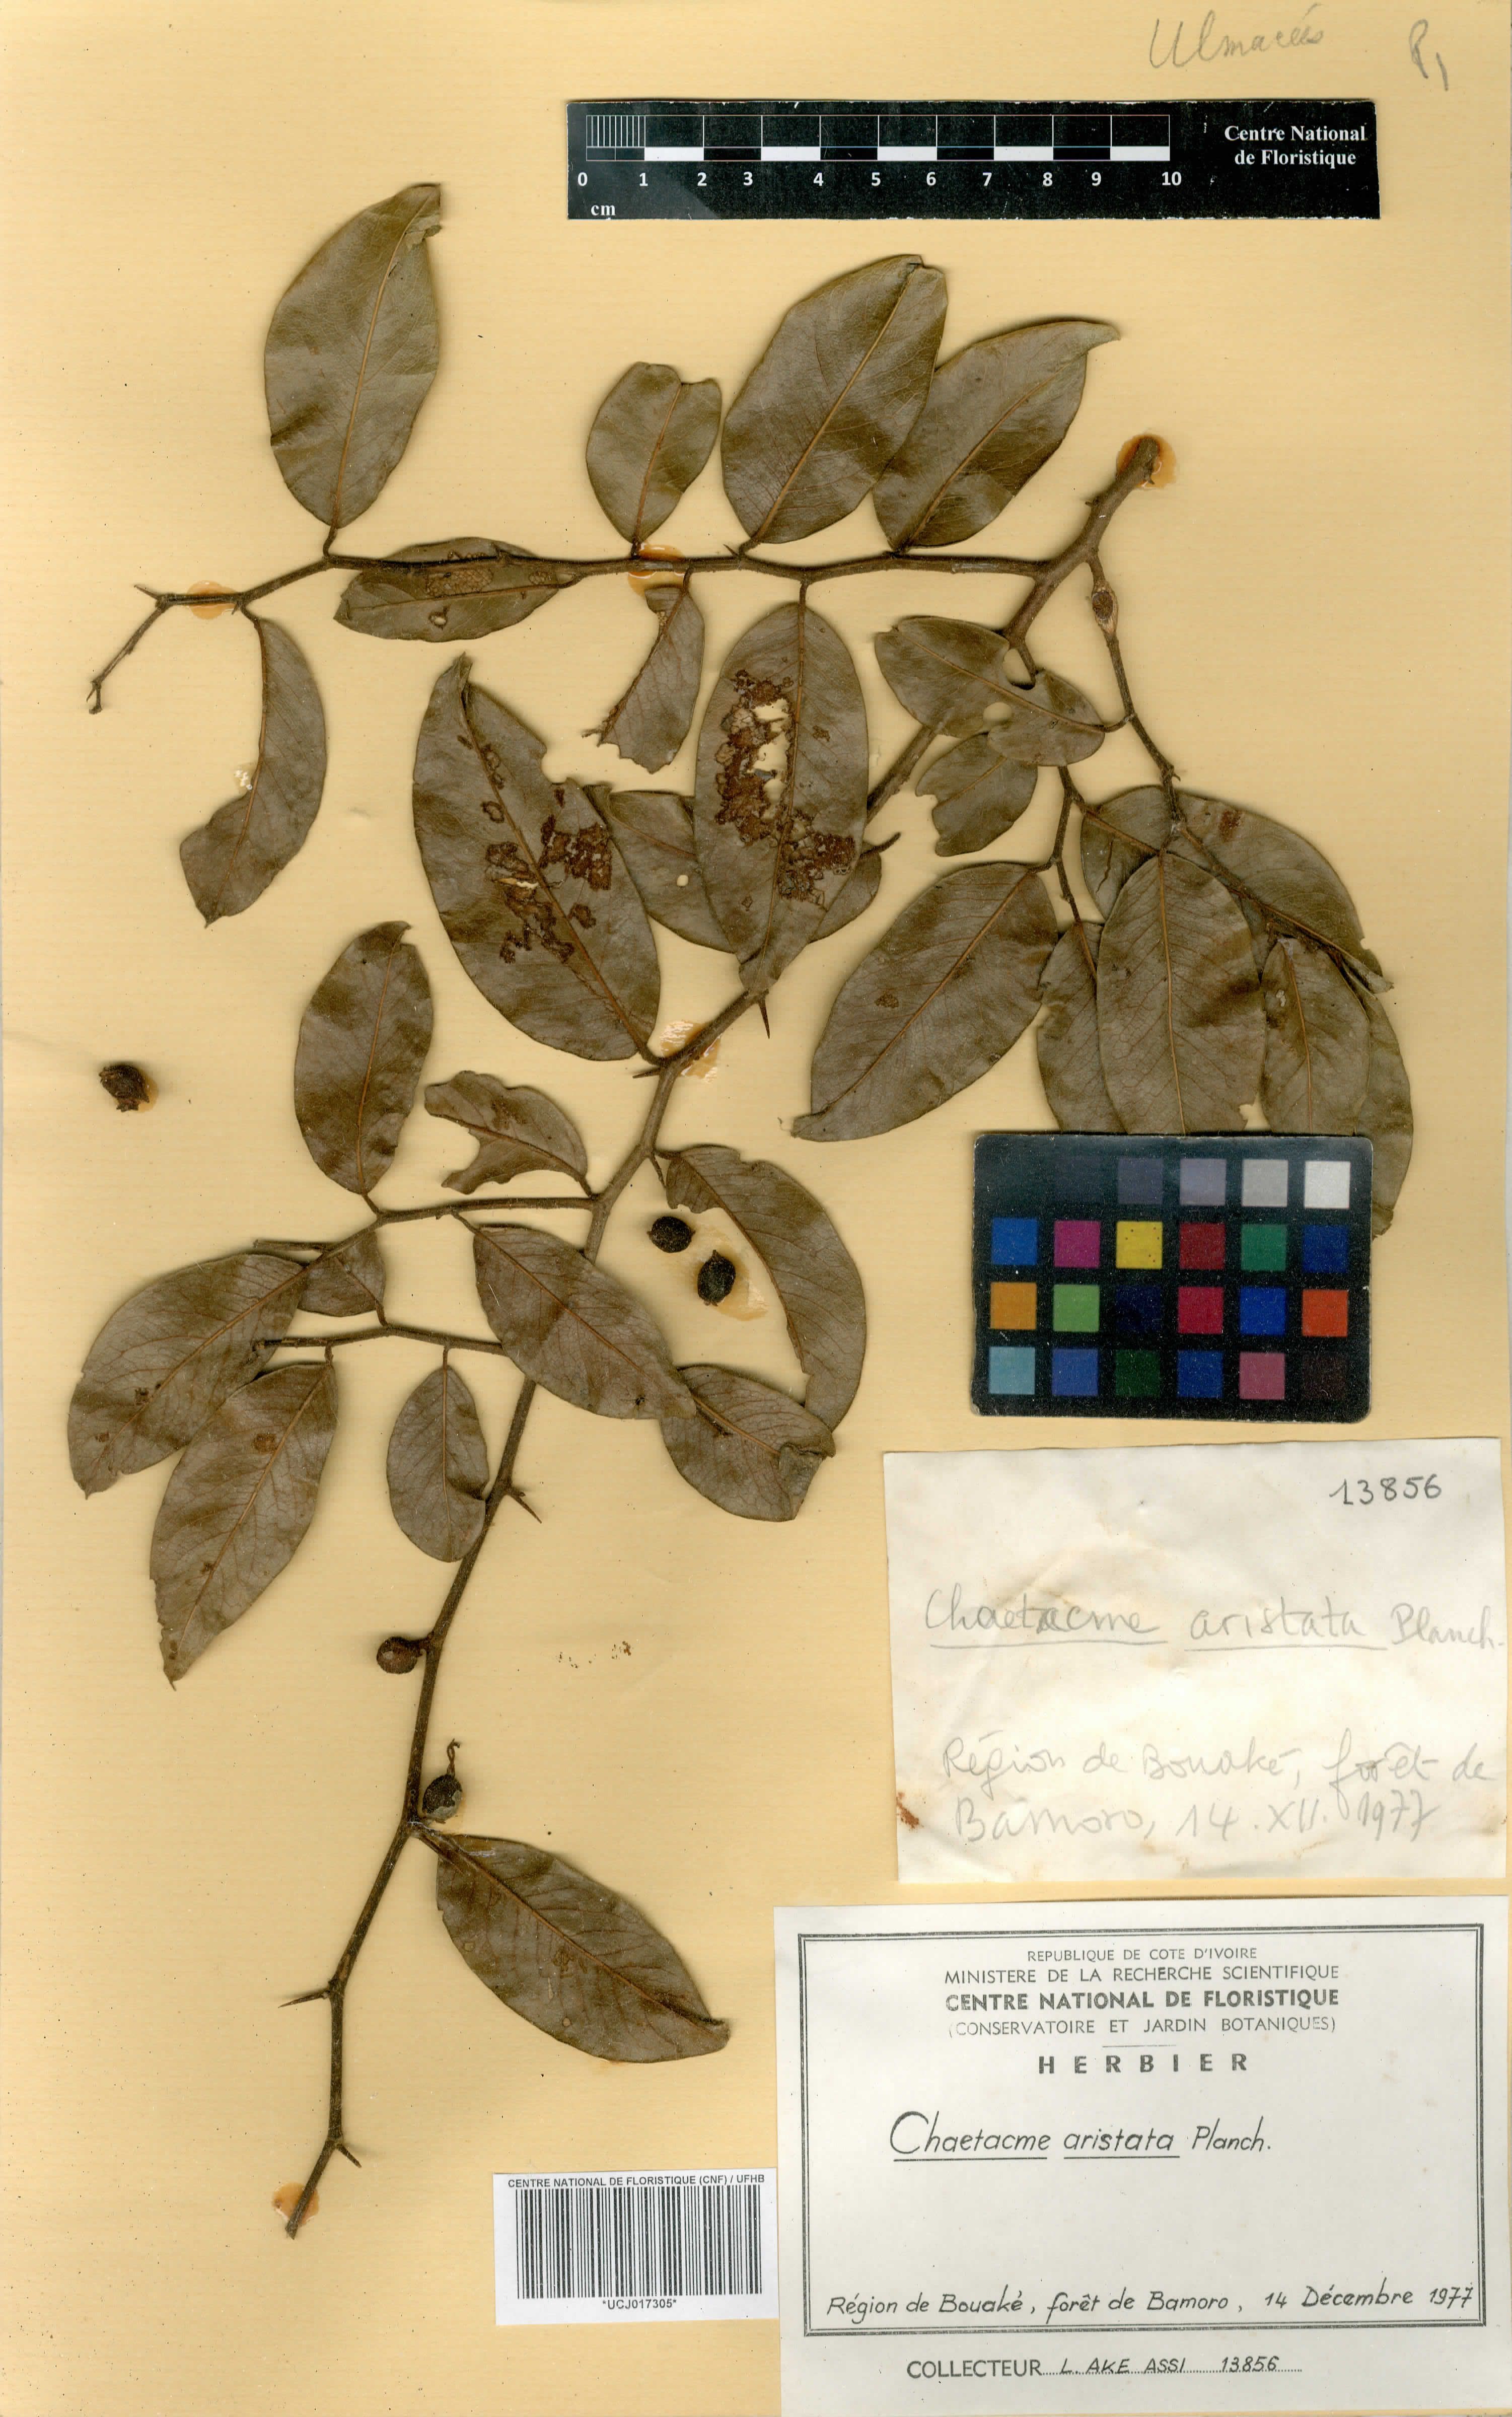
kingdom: Plantae
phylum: Tracheophyta
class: Magnoliopsida
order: Rosales
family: Cannabaceae
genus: Chaetachme
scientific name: Chaetachme aristata
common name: Thorny elm
